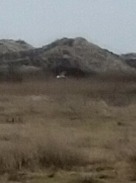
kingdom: Animalia
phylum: Chordata
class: Aves
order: Accipitriformes
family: Accipitridae
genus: Circus
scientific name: Circus aeruginosus
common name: Rørhøg
